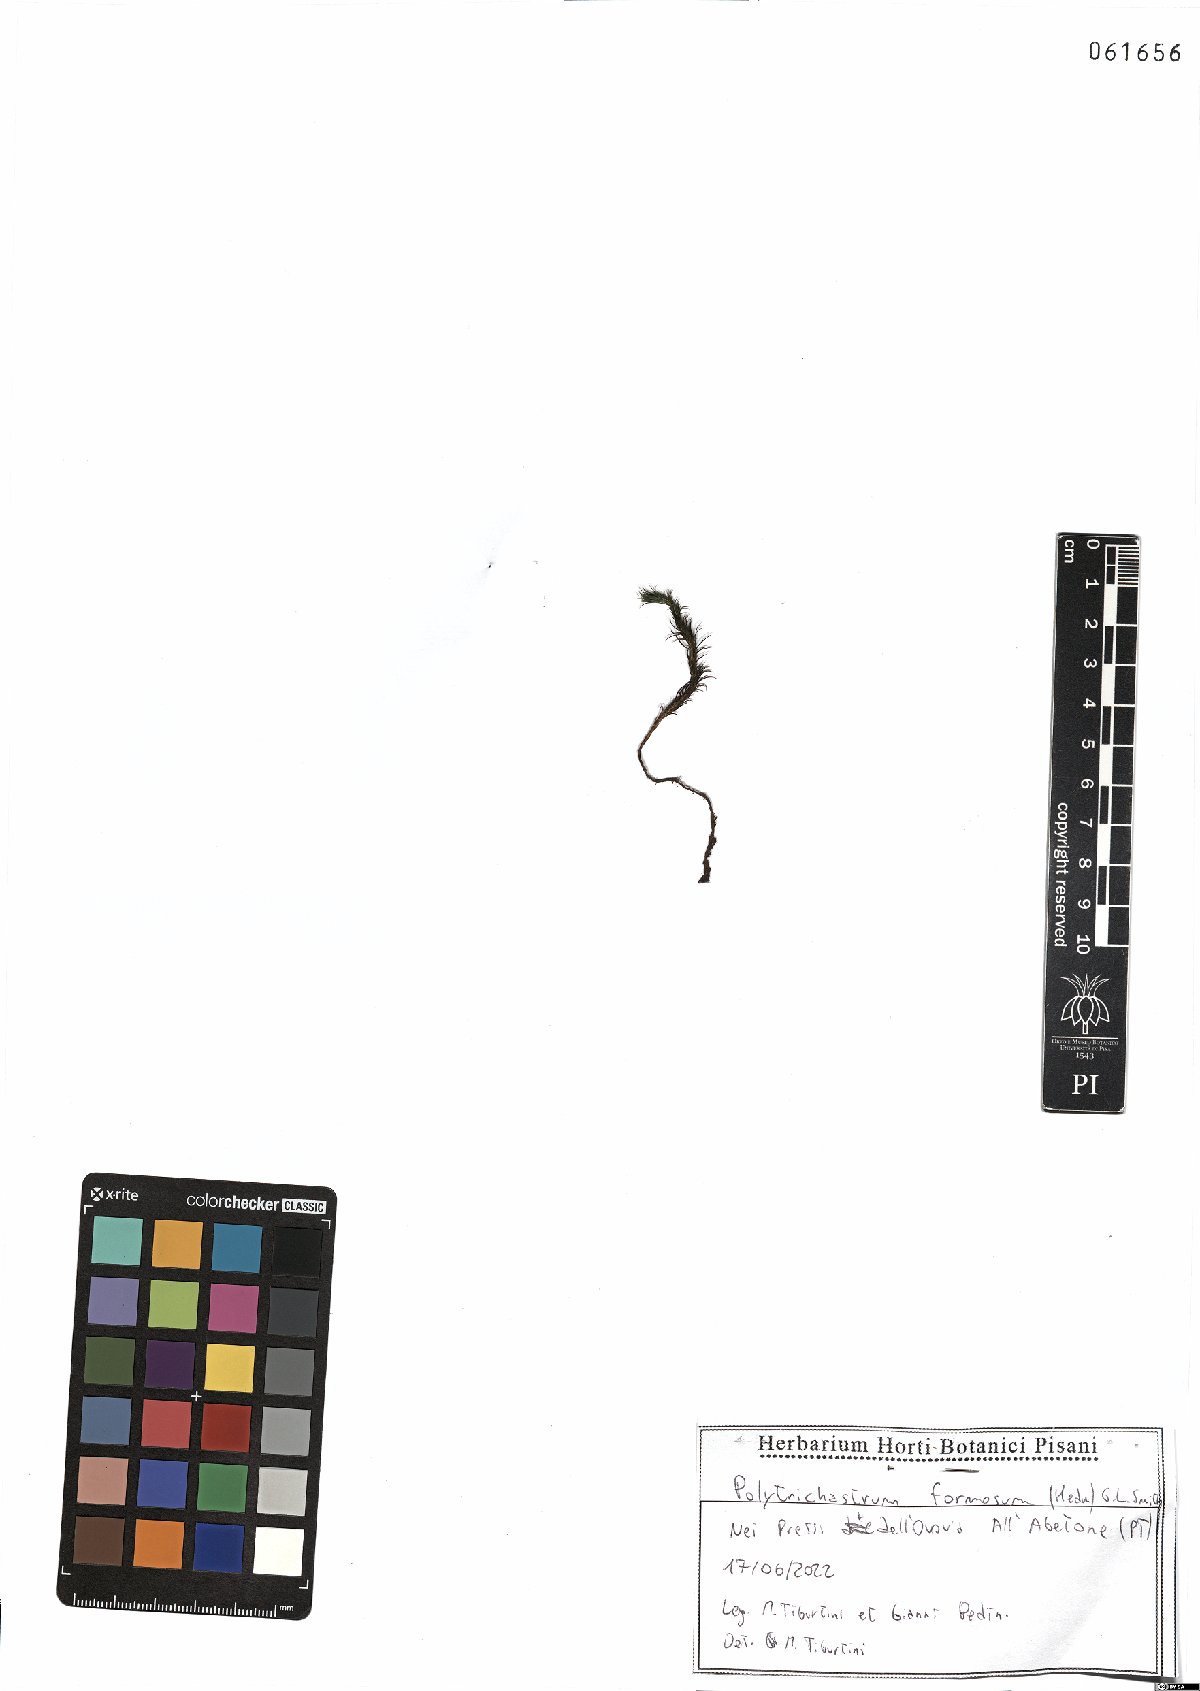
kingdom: Plantae
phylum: Bryophyta
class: Polytrichopsida
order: Polytrichales
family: Polytrichaceae
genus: Polytrichum
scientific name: Polytrichum formosum
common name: Bank haircap moss
